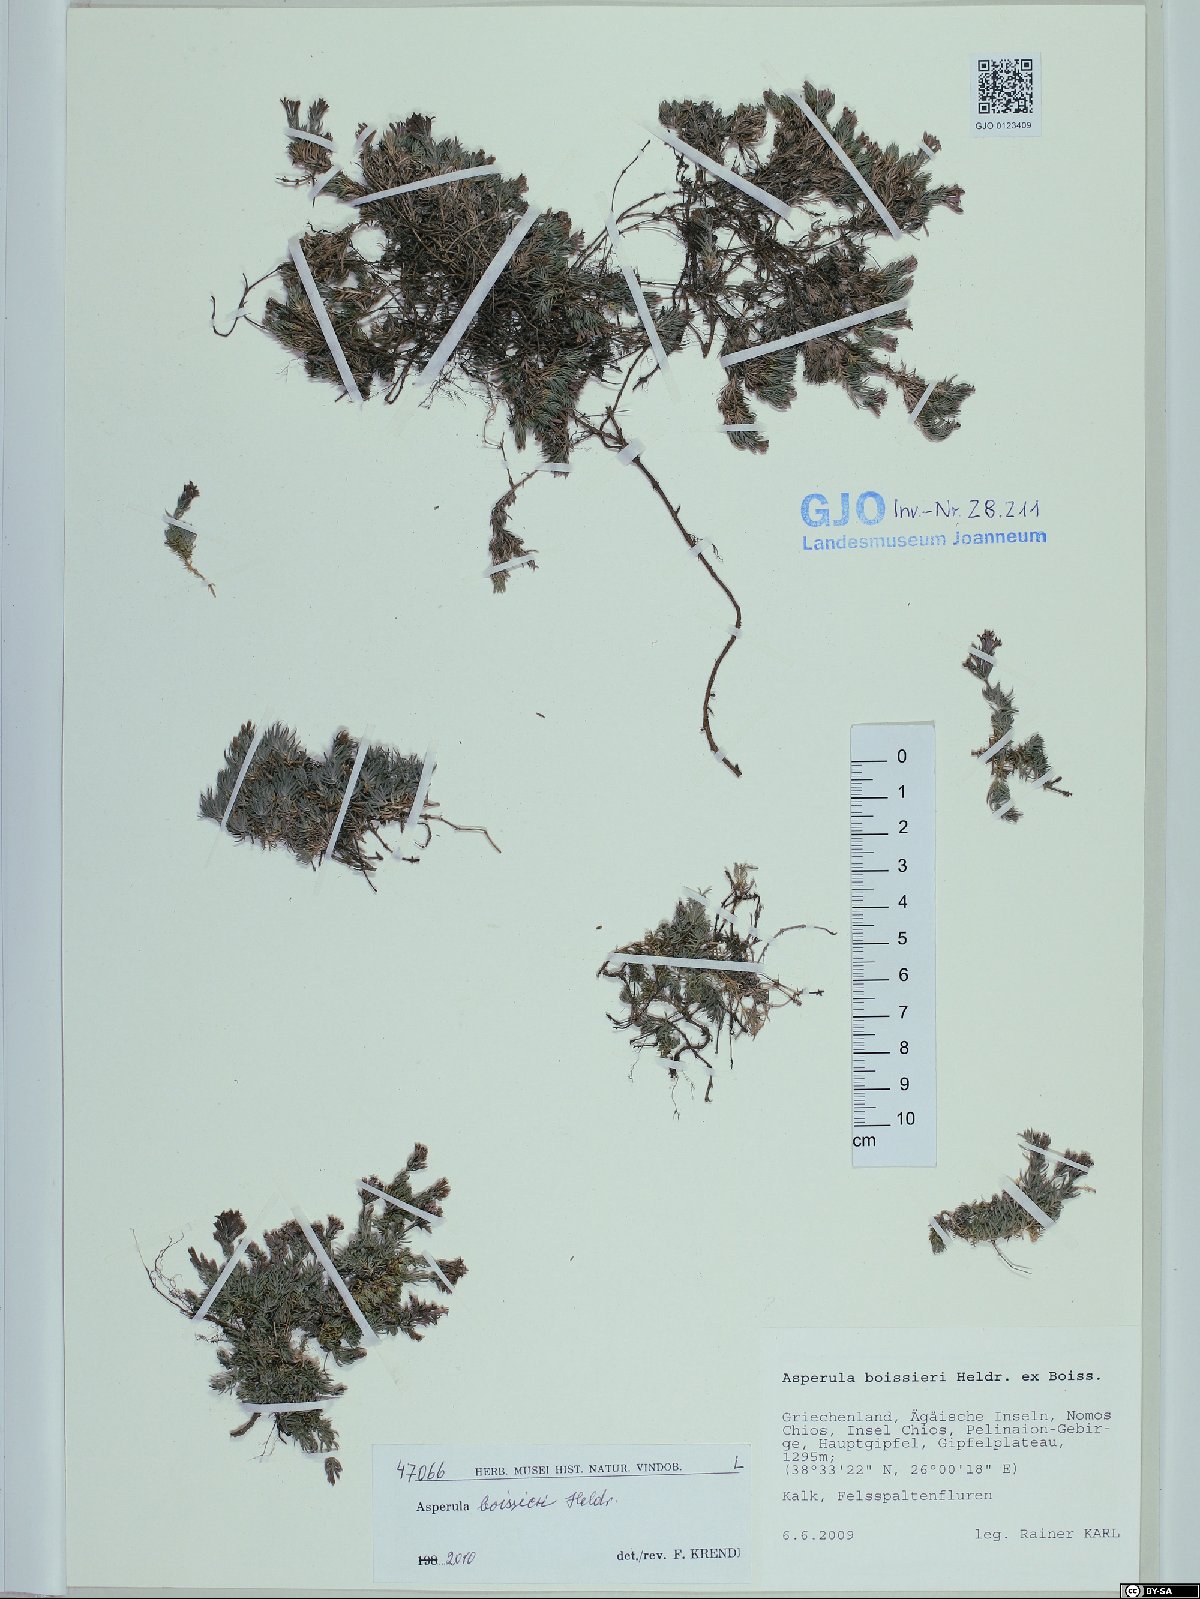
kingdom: Plantae
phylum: Tracheophyta
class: Magnoliopsida
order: Gentianales
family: Rubiaceae
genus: Cynanchica
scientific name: Cynanchica boissieri
